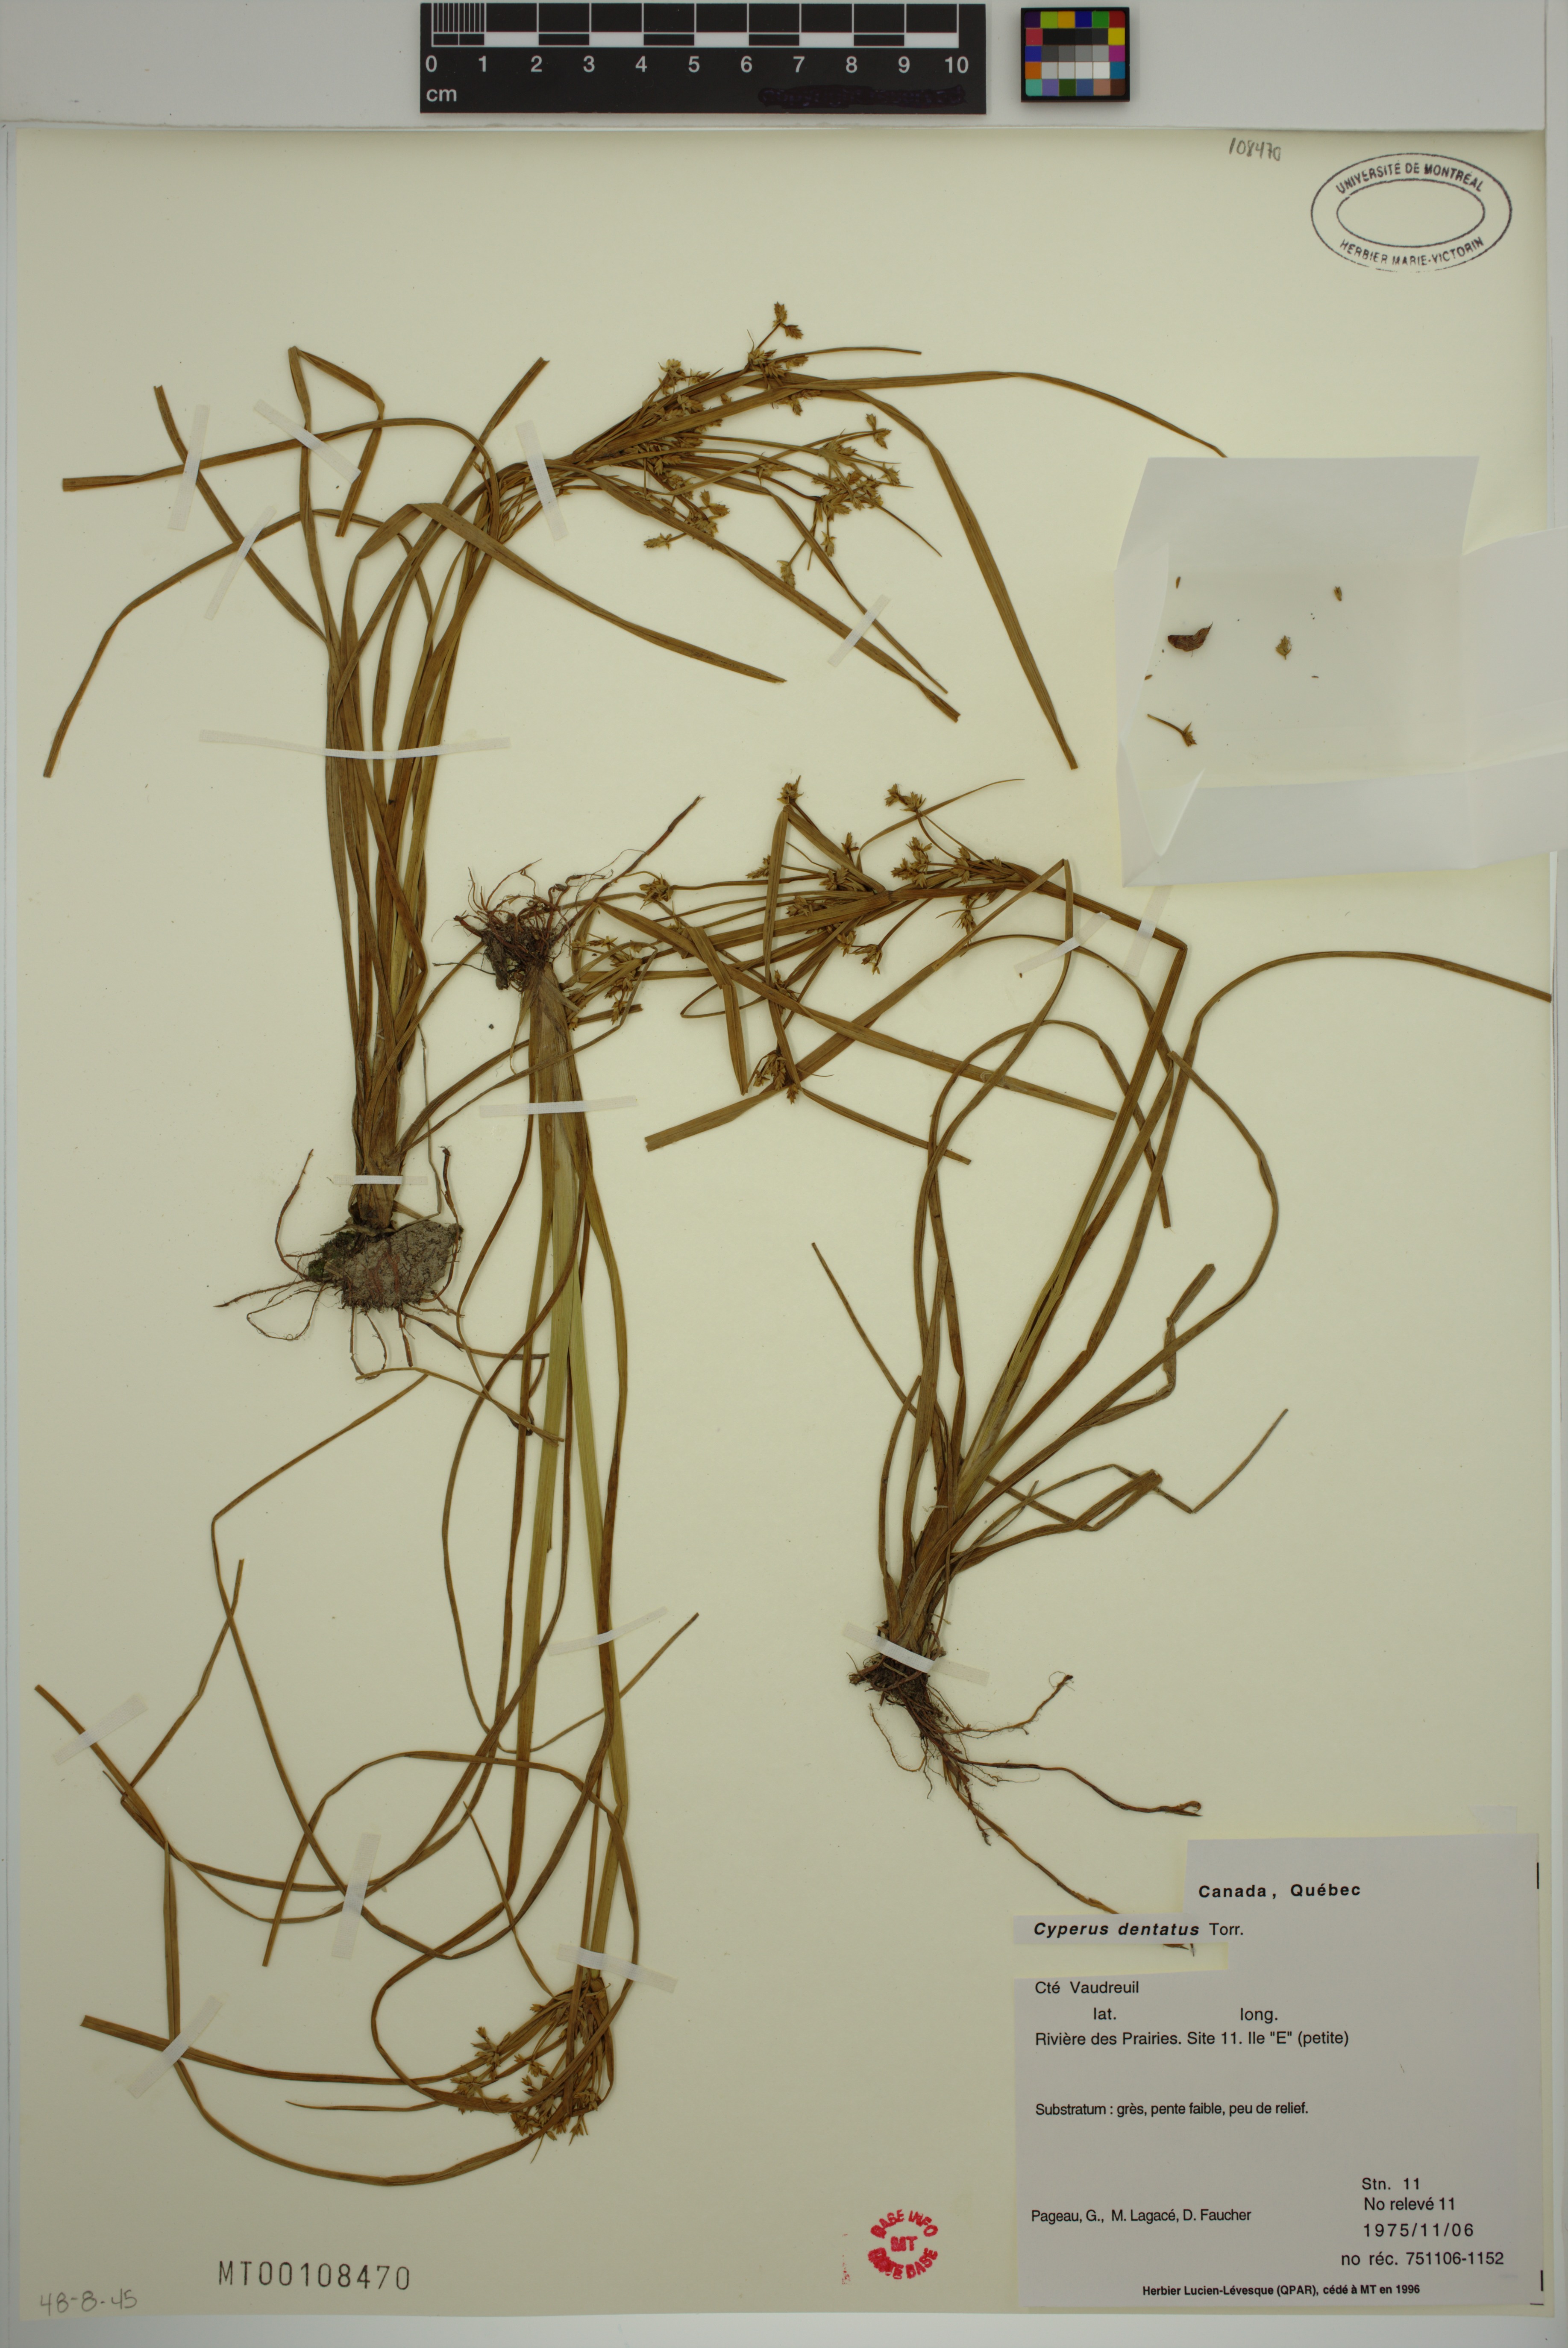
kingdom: Plantae
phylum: Tracheophyta
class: Liliopsida
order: Poales
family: Cyperaceae
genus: Cyperus
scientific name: Cyperus dentatus
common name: Dentate umbrella sedge
